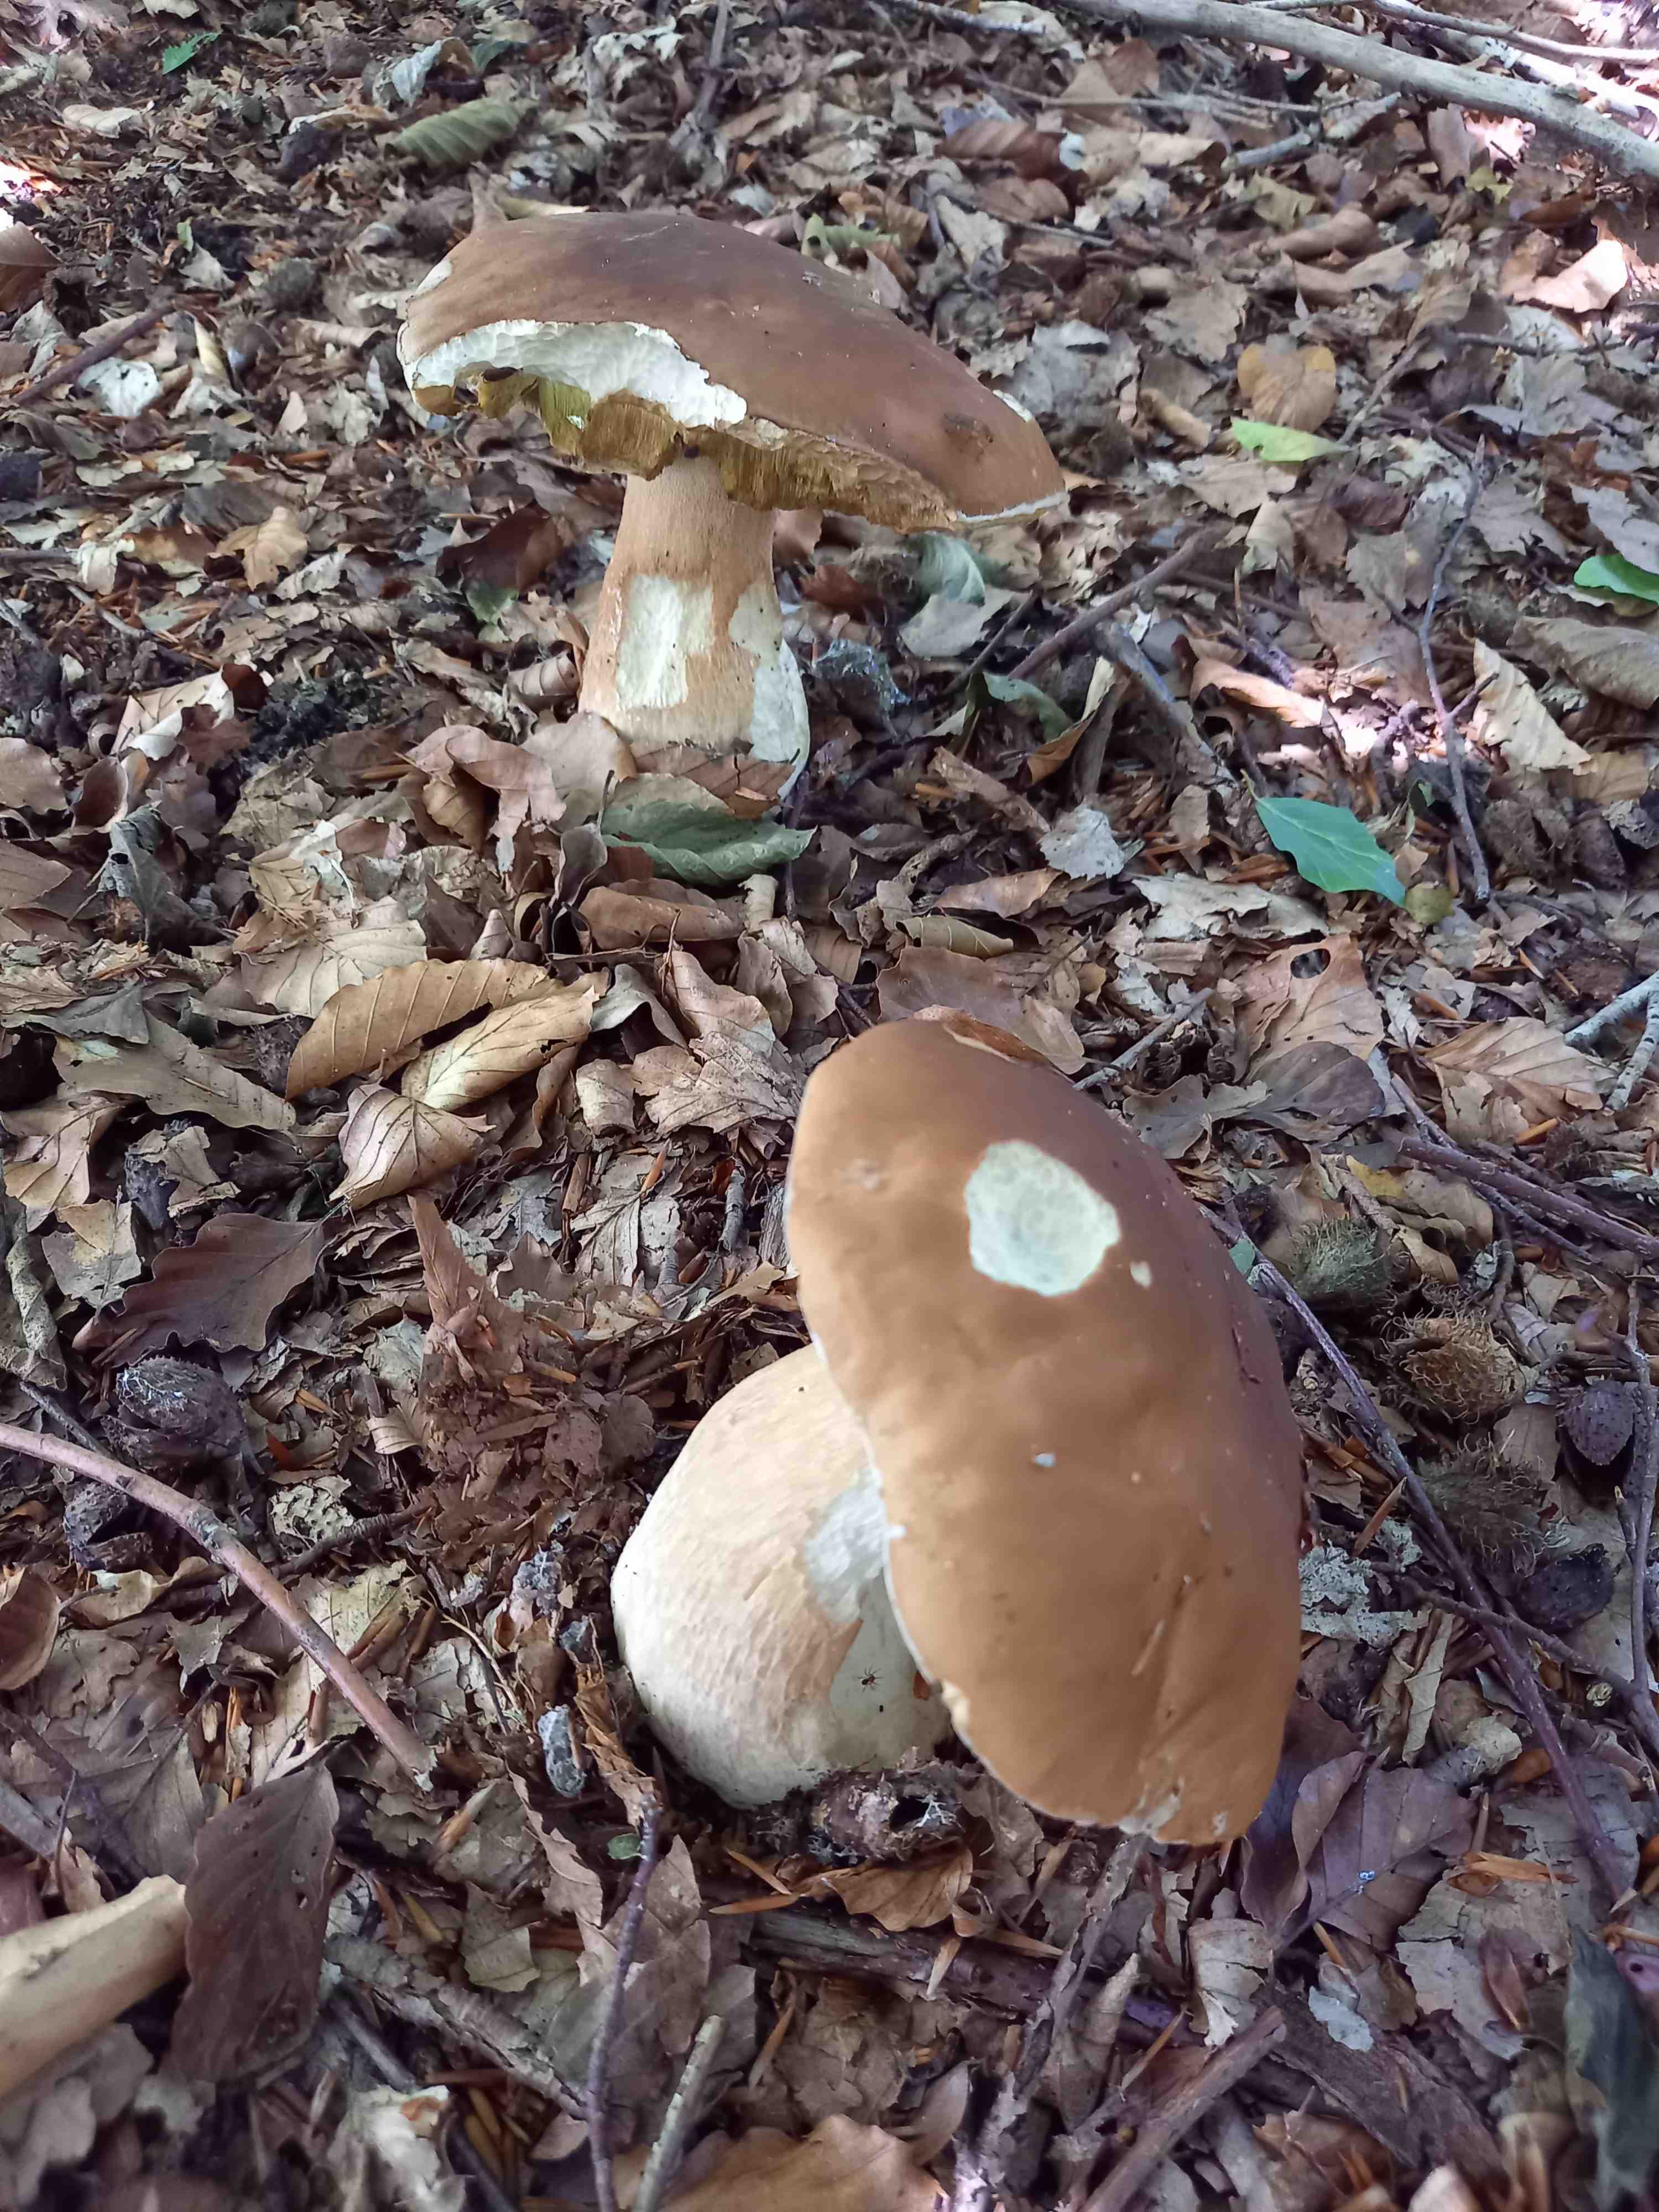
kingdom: Fungi
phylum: Basidiomycota
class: Agaricomycetes
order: Boletales
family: Boletaceae
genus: Boletus
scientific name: Boletus edulis
